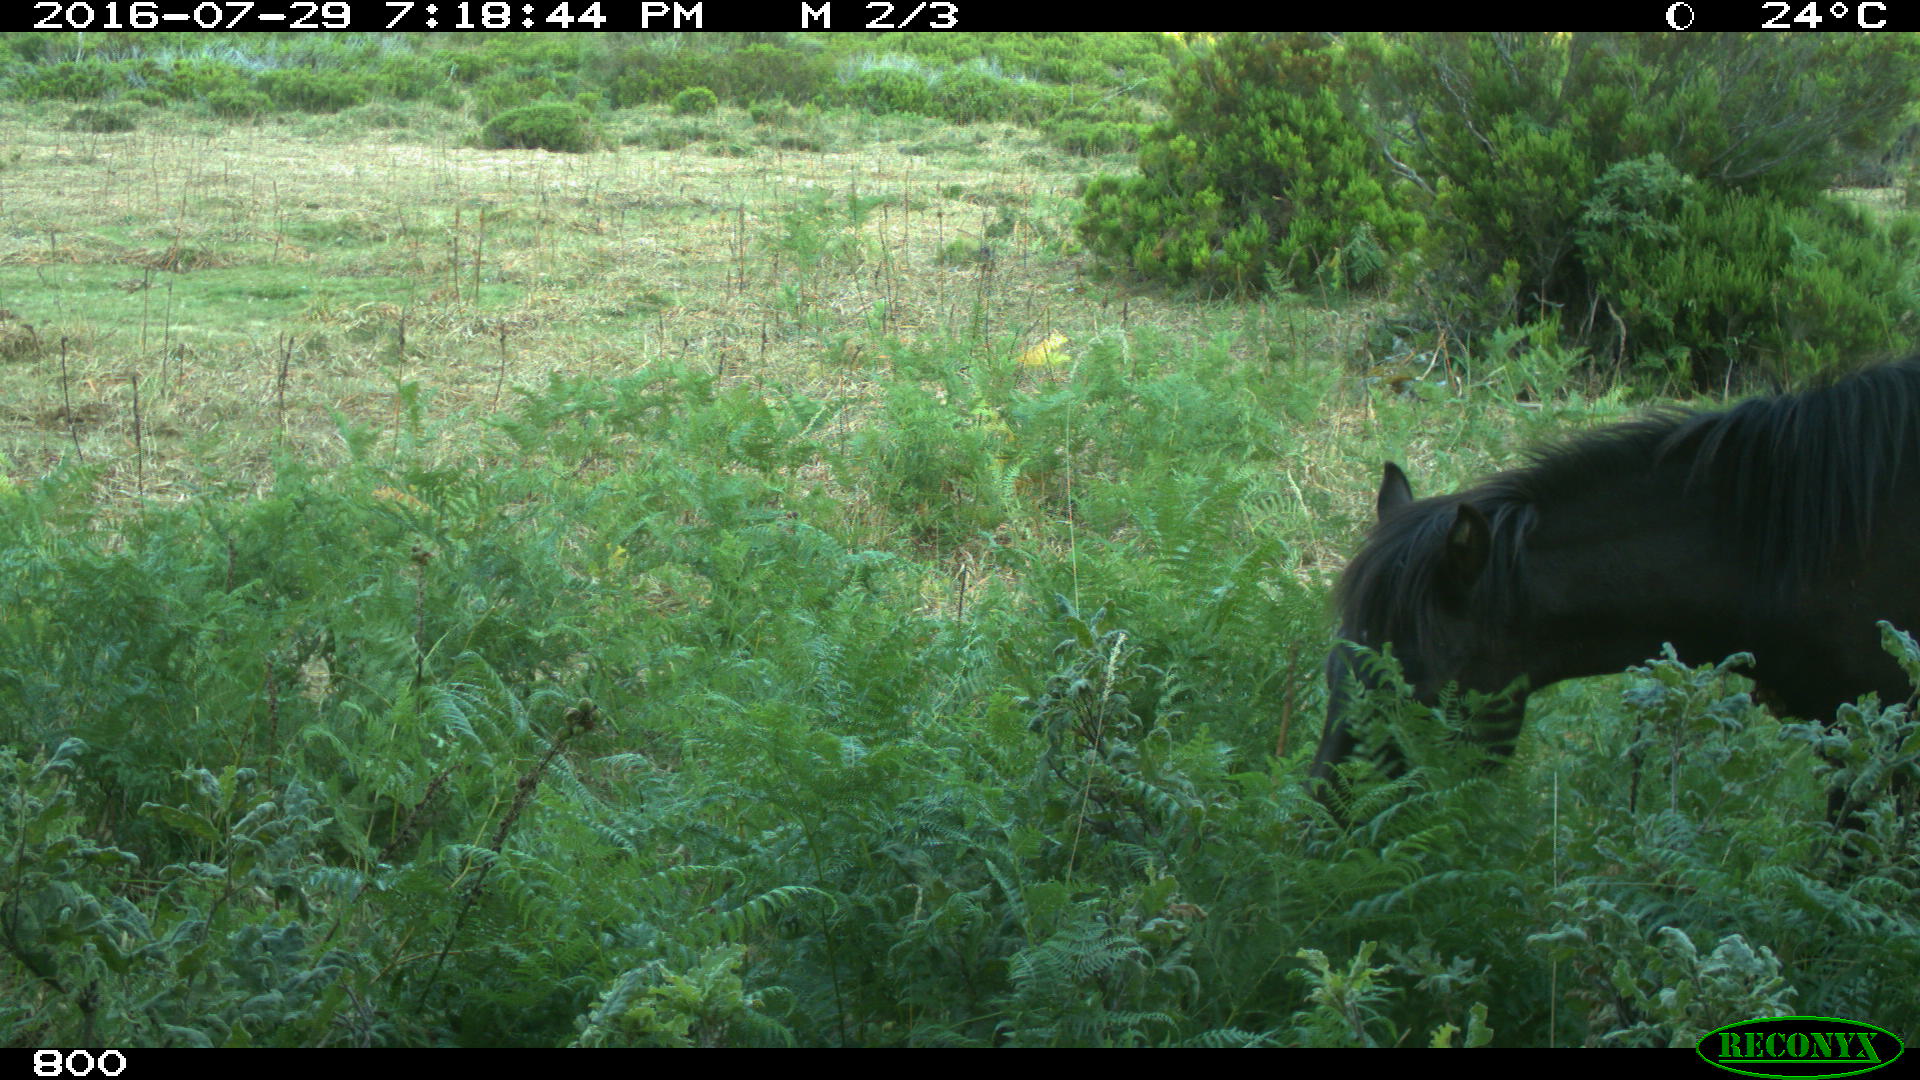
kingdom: Animalia
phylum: Chordata
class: Mammalia
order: Perissodactyla
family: Equidae
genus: Equus
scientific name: Equus caballus
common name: Horse
